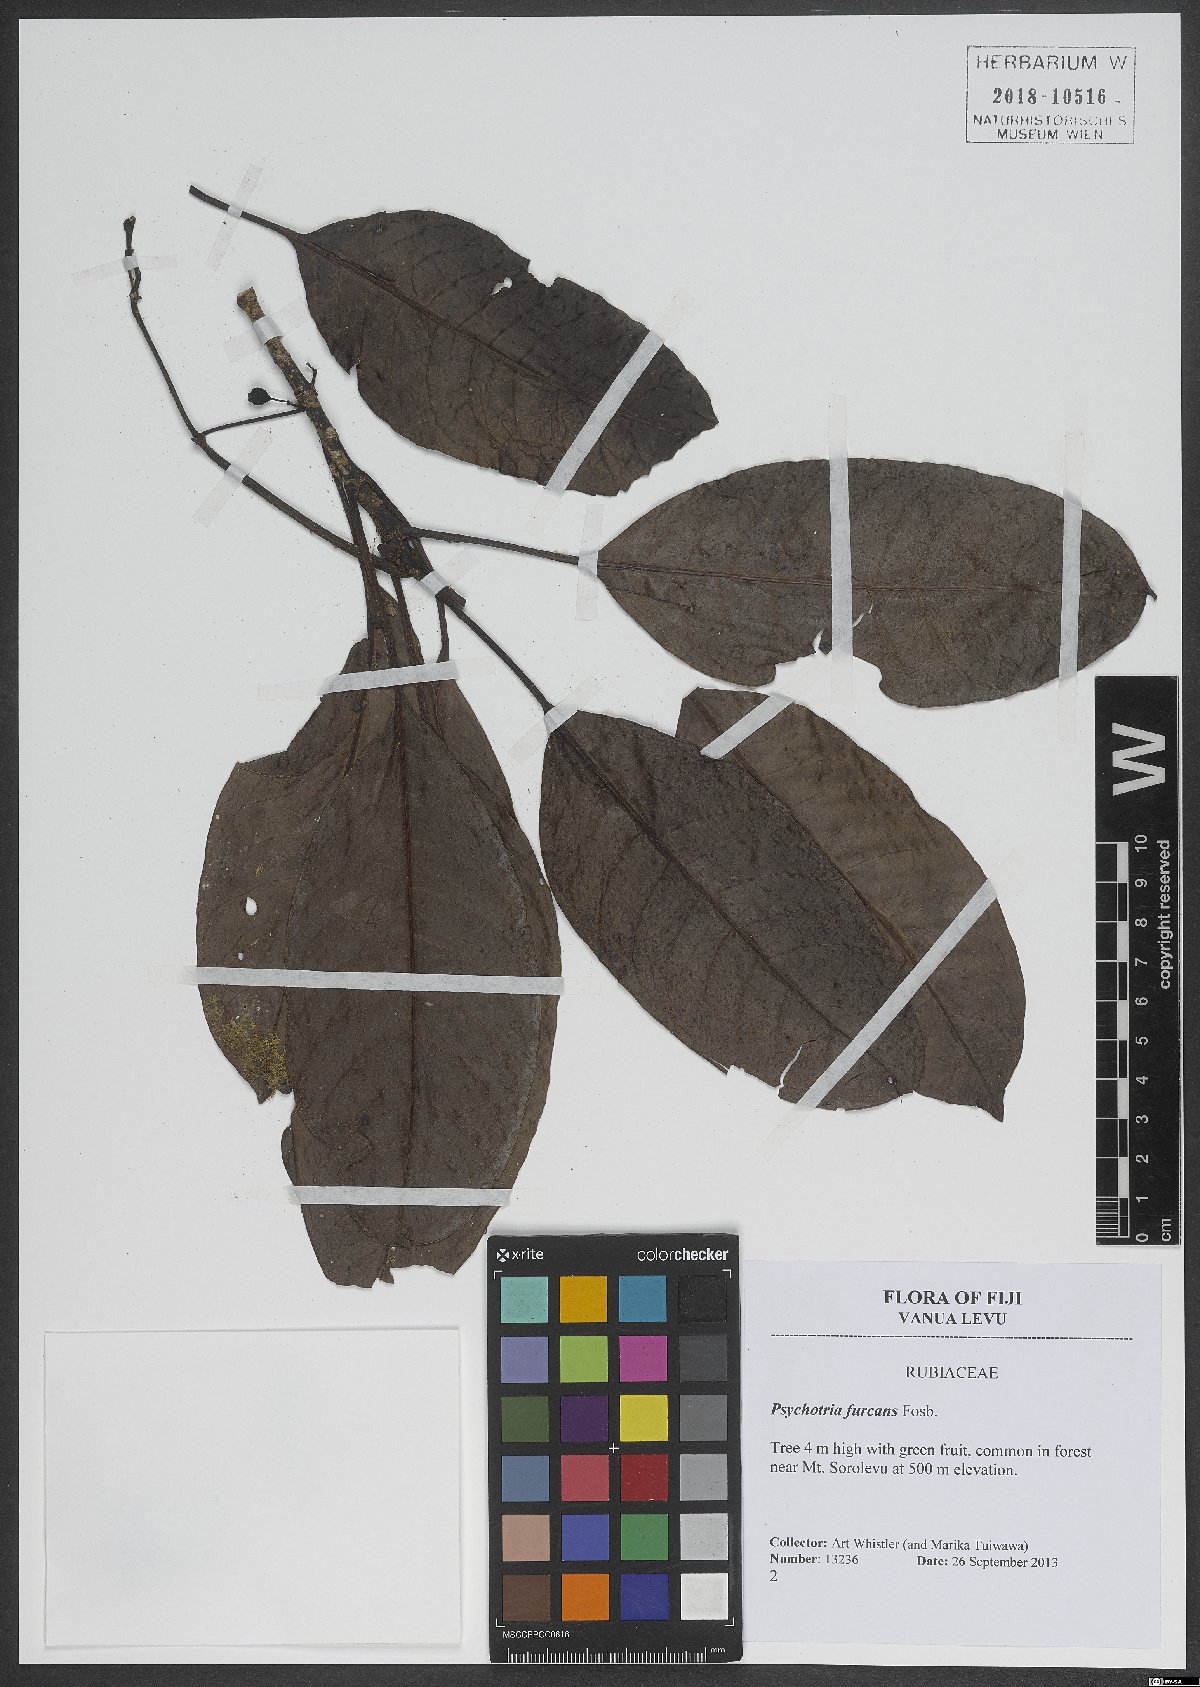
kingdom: Plantae
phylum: Tracheophyta
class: Magnoliopsida
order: Gentianales
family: Rubiaceae
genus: Psychotria
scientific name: Psychotria furcans
